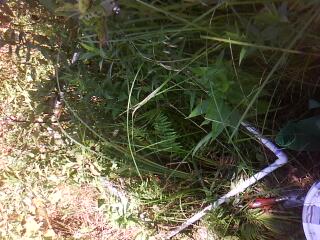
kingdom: Plantae
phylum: Tracheophyta
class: Magnoliopsida
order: Asterales
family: Asteraceae
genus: Symphyotrichum
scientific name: Symphyotrichum firmum
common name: Shining aster
